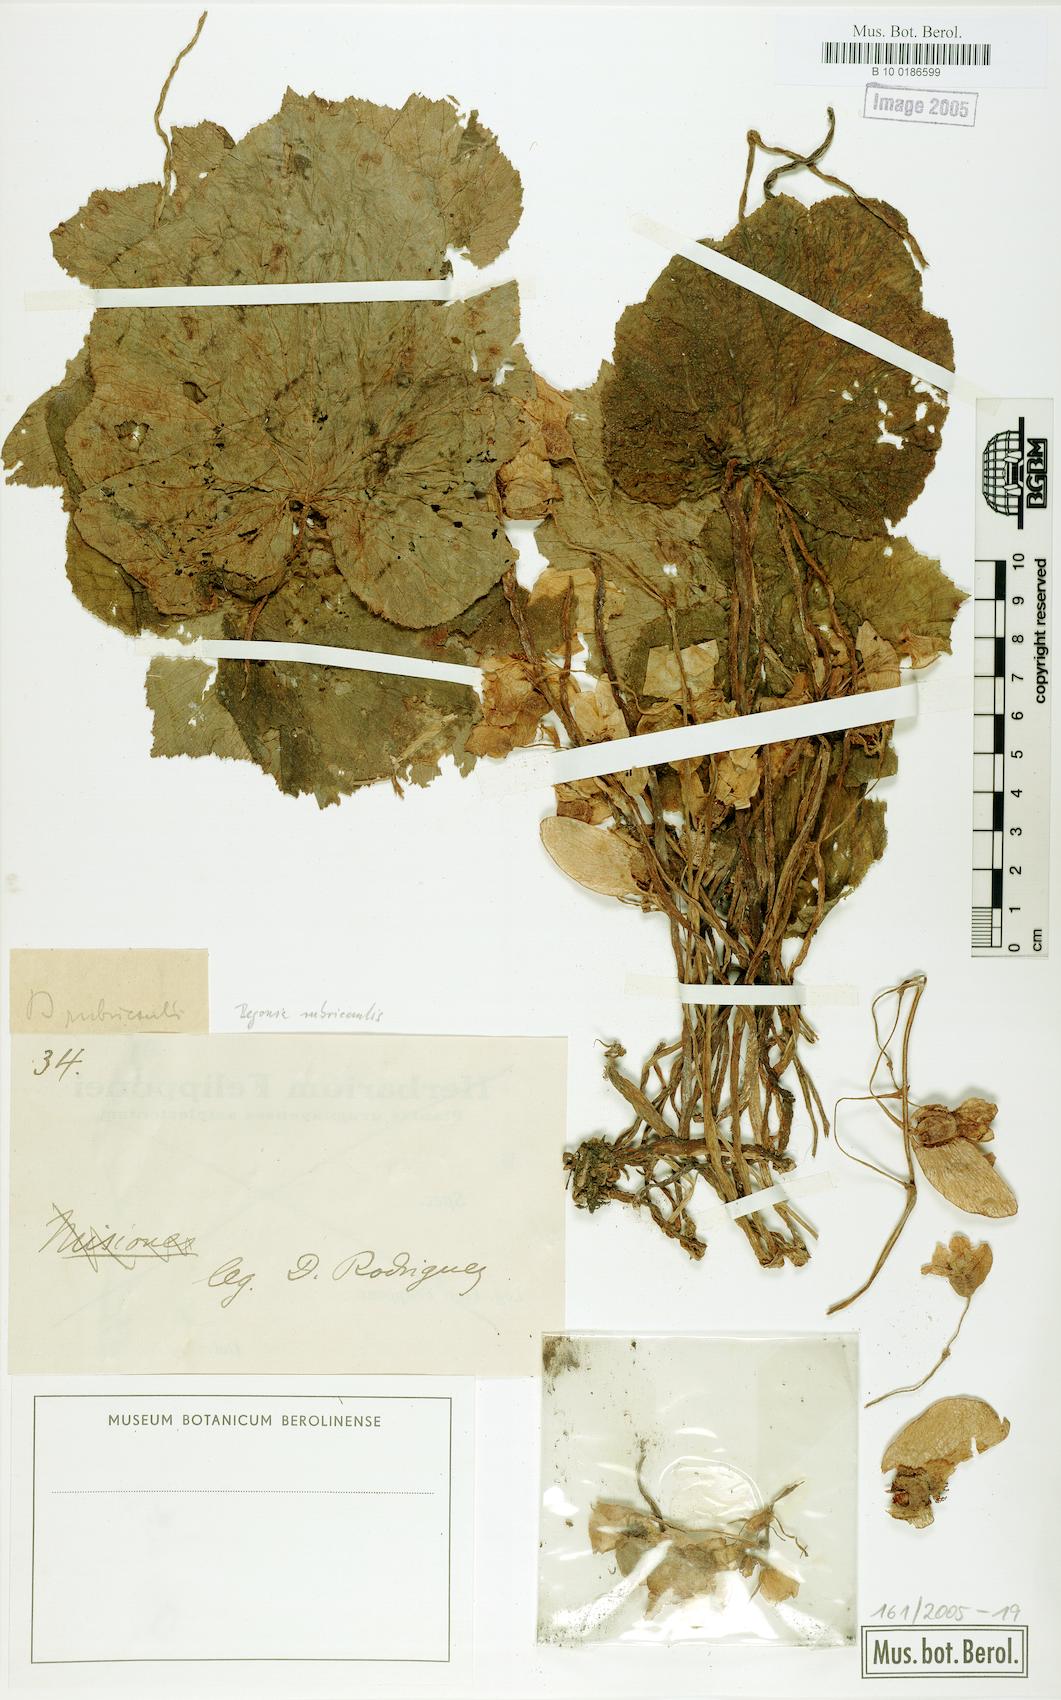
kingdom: Plantae
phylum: Tracheophyta
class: Magnoliopsida
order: Cucurbitales
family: Begoniaceae
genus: Begonia
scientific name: Begonia rubricaulis
